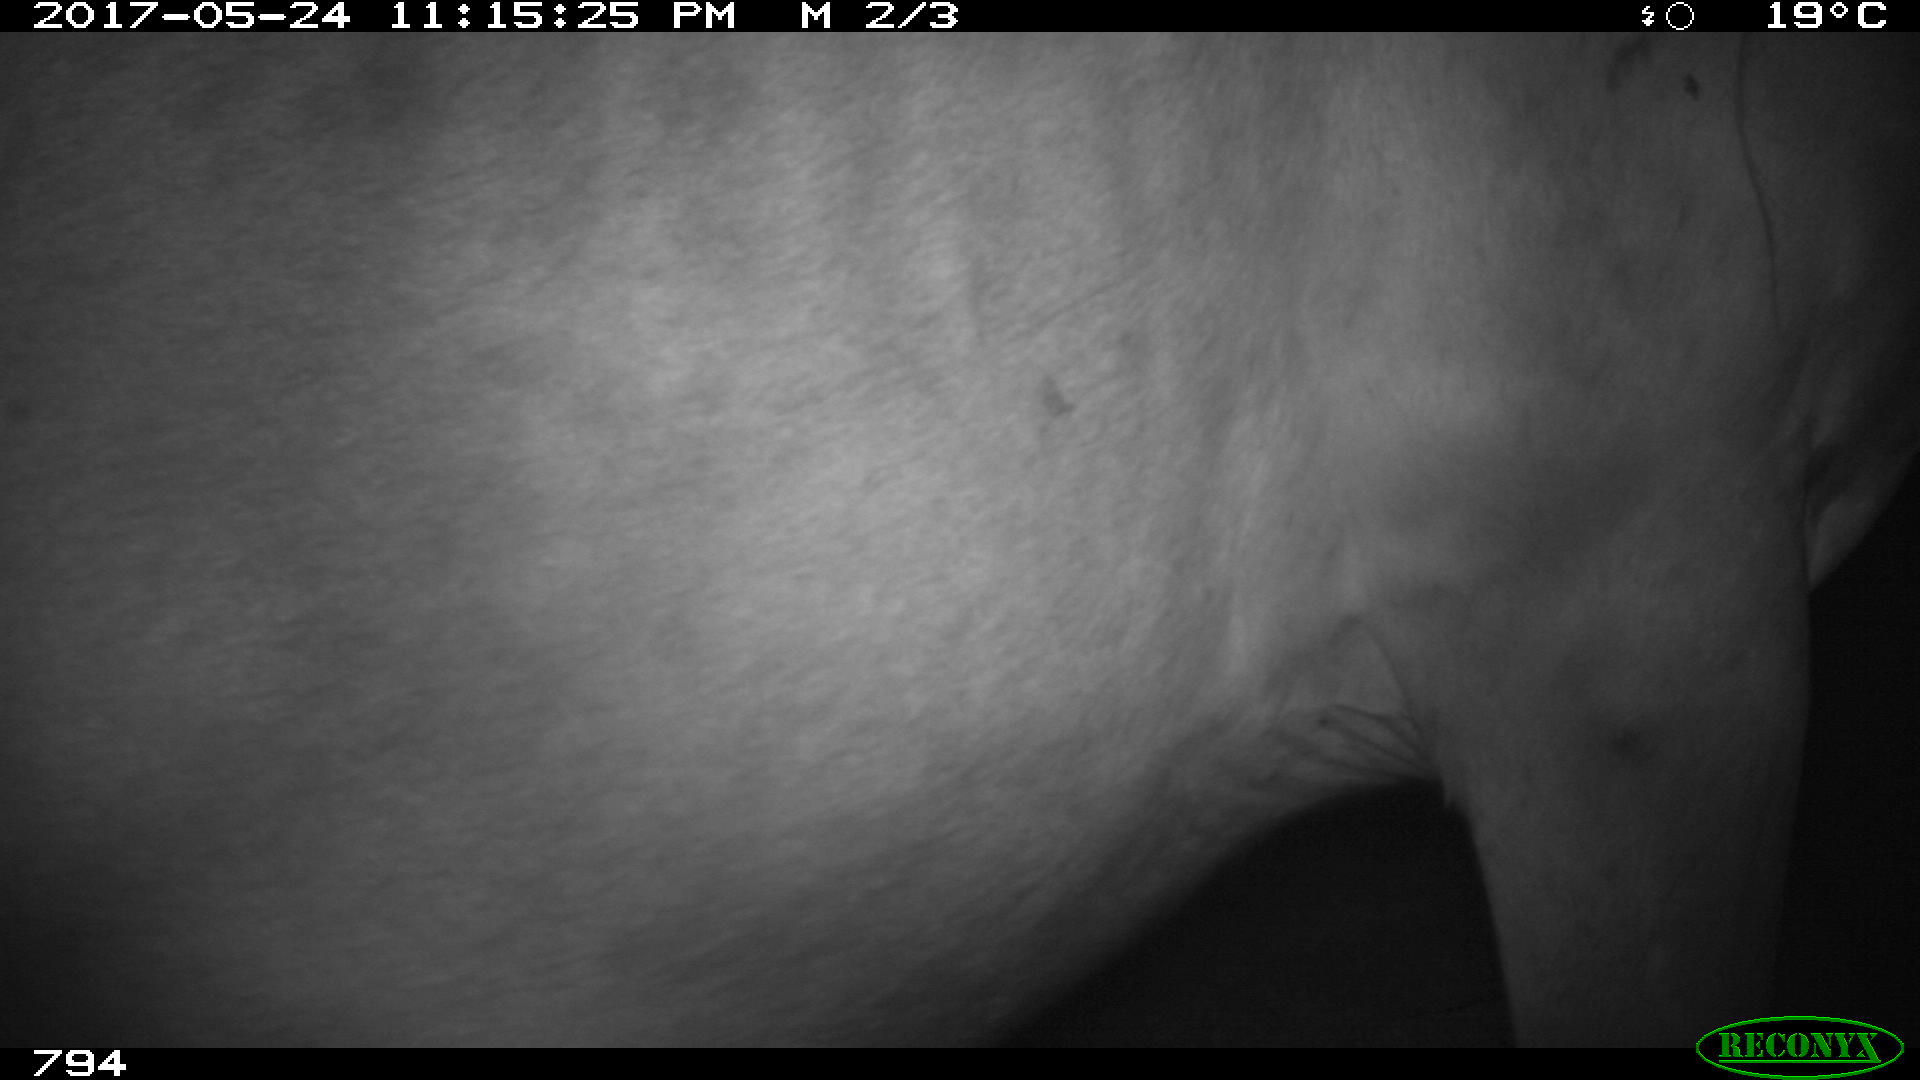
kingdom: Animalia
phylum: Chordata
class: Mammalia
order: Perissodactyla
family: Equidae
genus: Equus
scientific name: Equus caballus
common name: Horse
